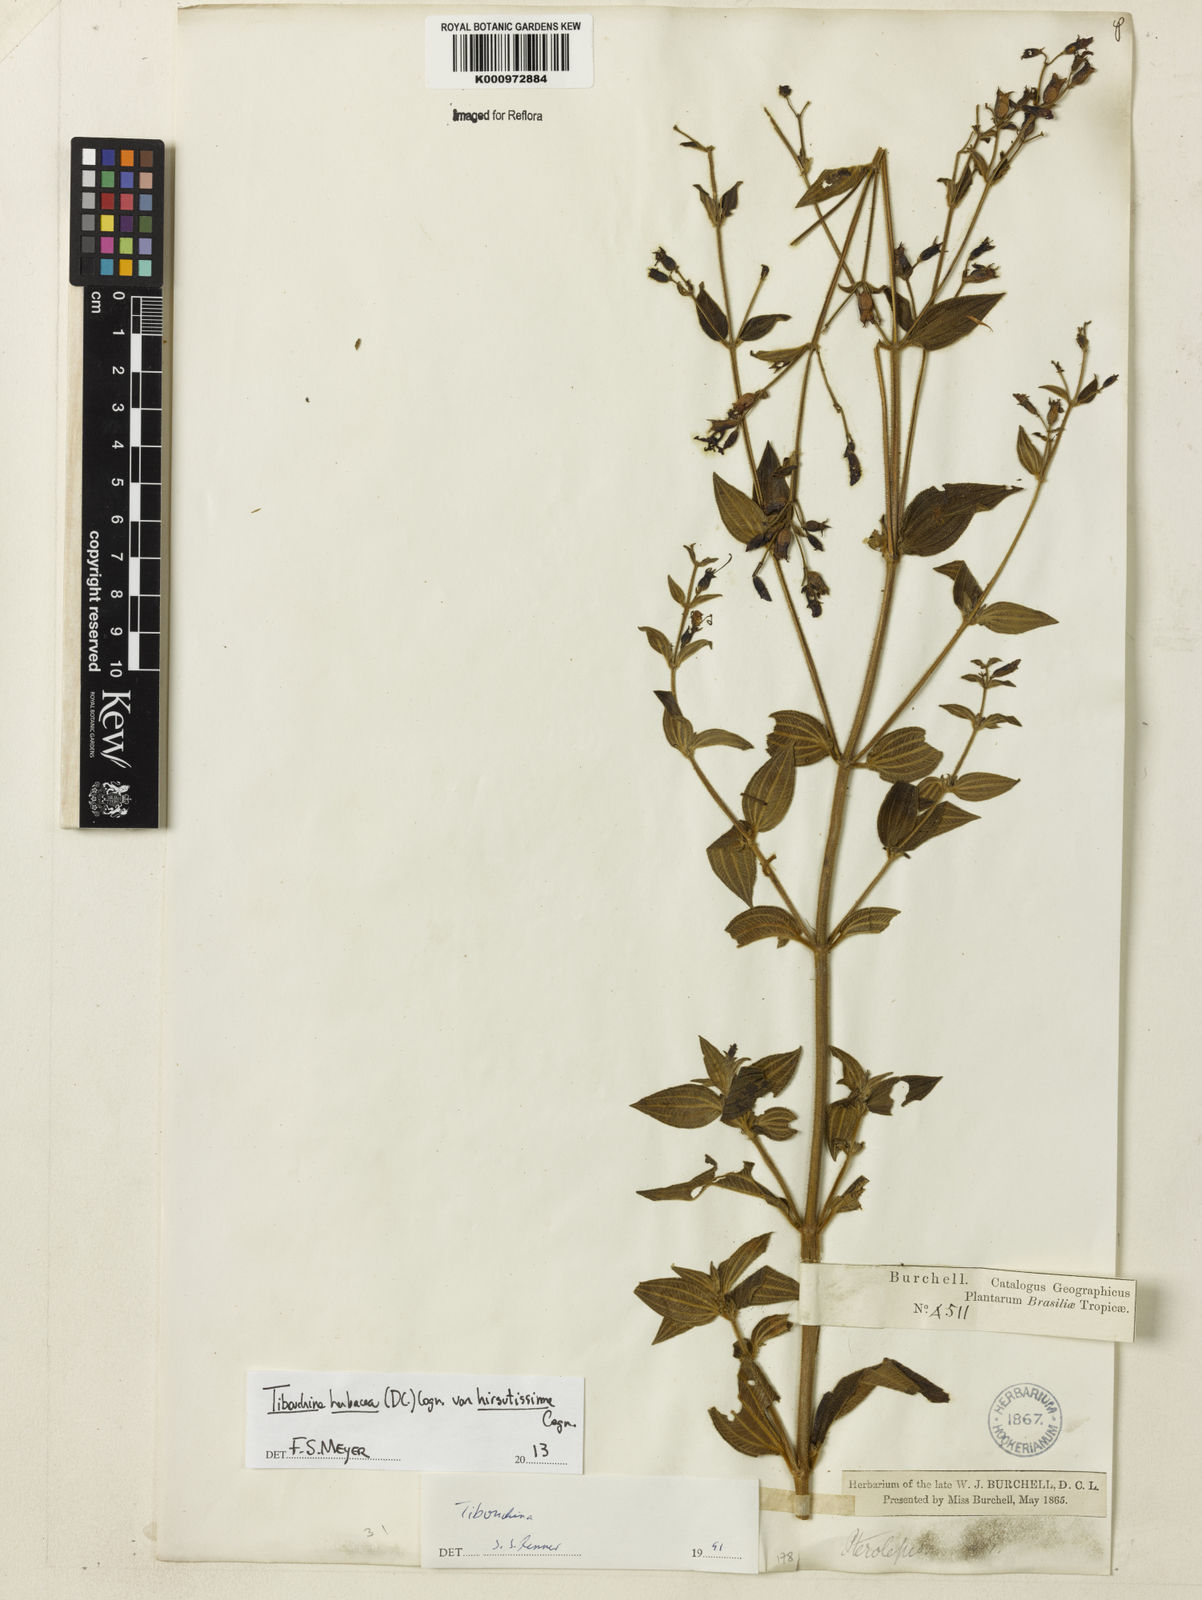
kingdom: Plantae
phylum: Tracheophyta
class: Magnoliopsida
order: Myrtales
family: Melastomataceae
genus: Chaetogastra
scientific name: Chaetogastra herbacea
